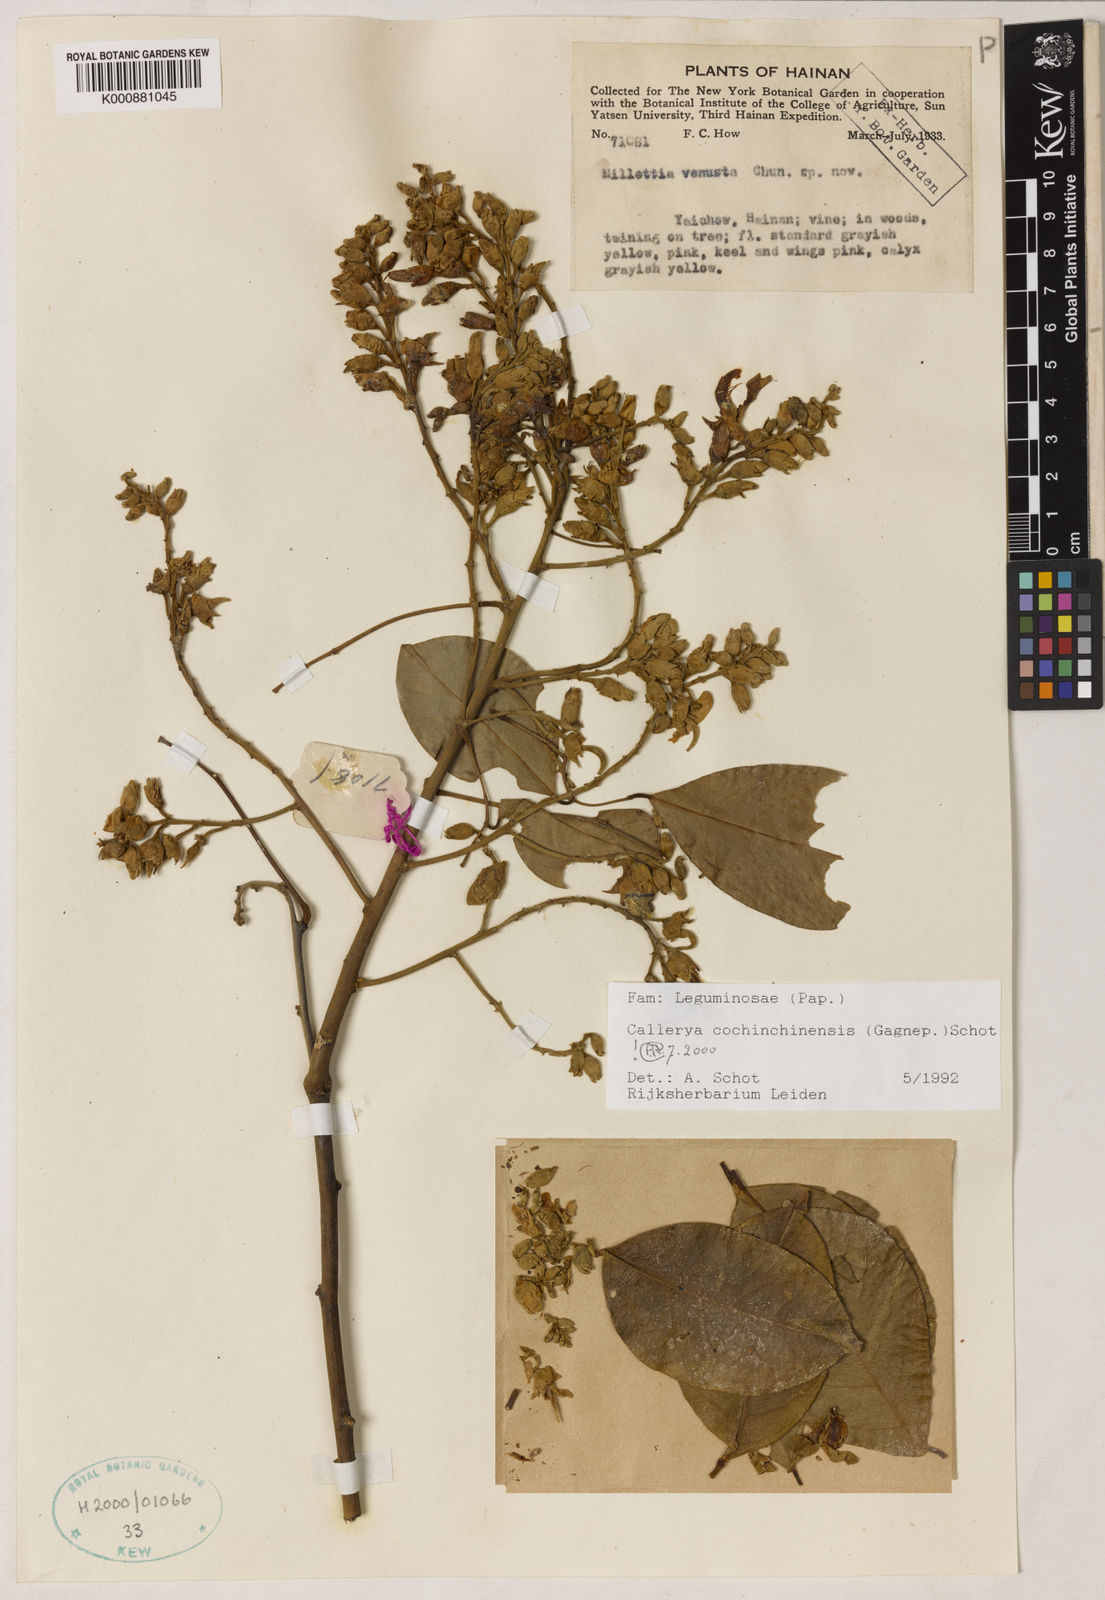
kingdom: Plantae
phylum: Tracheophyta
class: Magnoliopsida
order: Fabales
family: Fabaceae
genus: Callerya
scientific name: Callerya cochinchinensis
